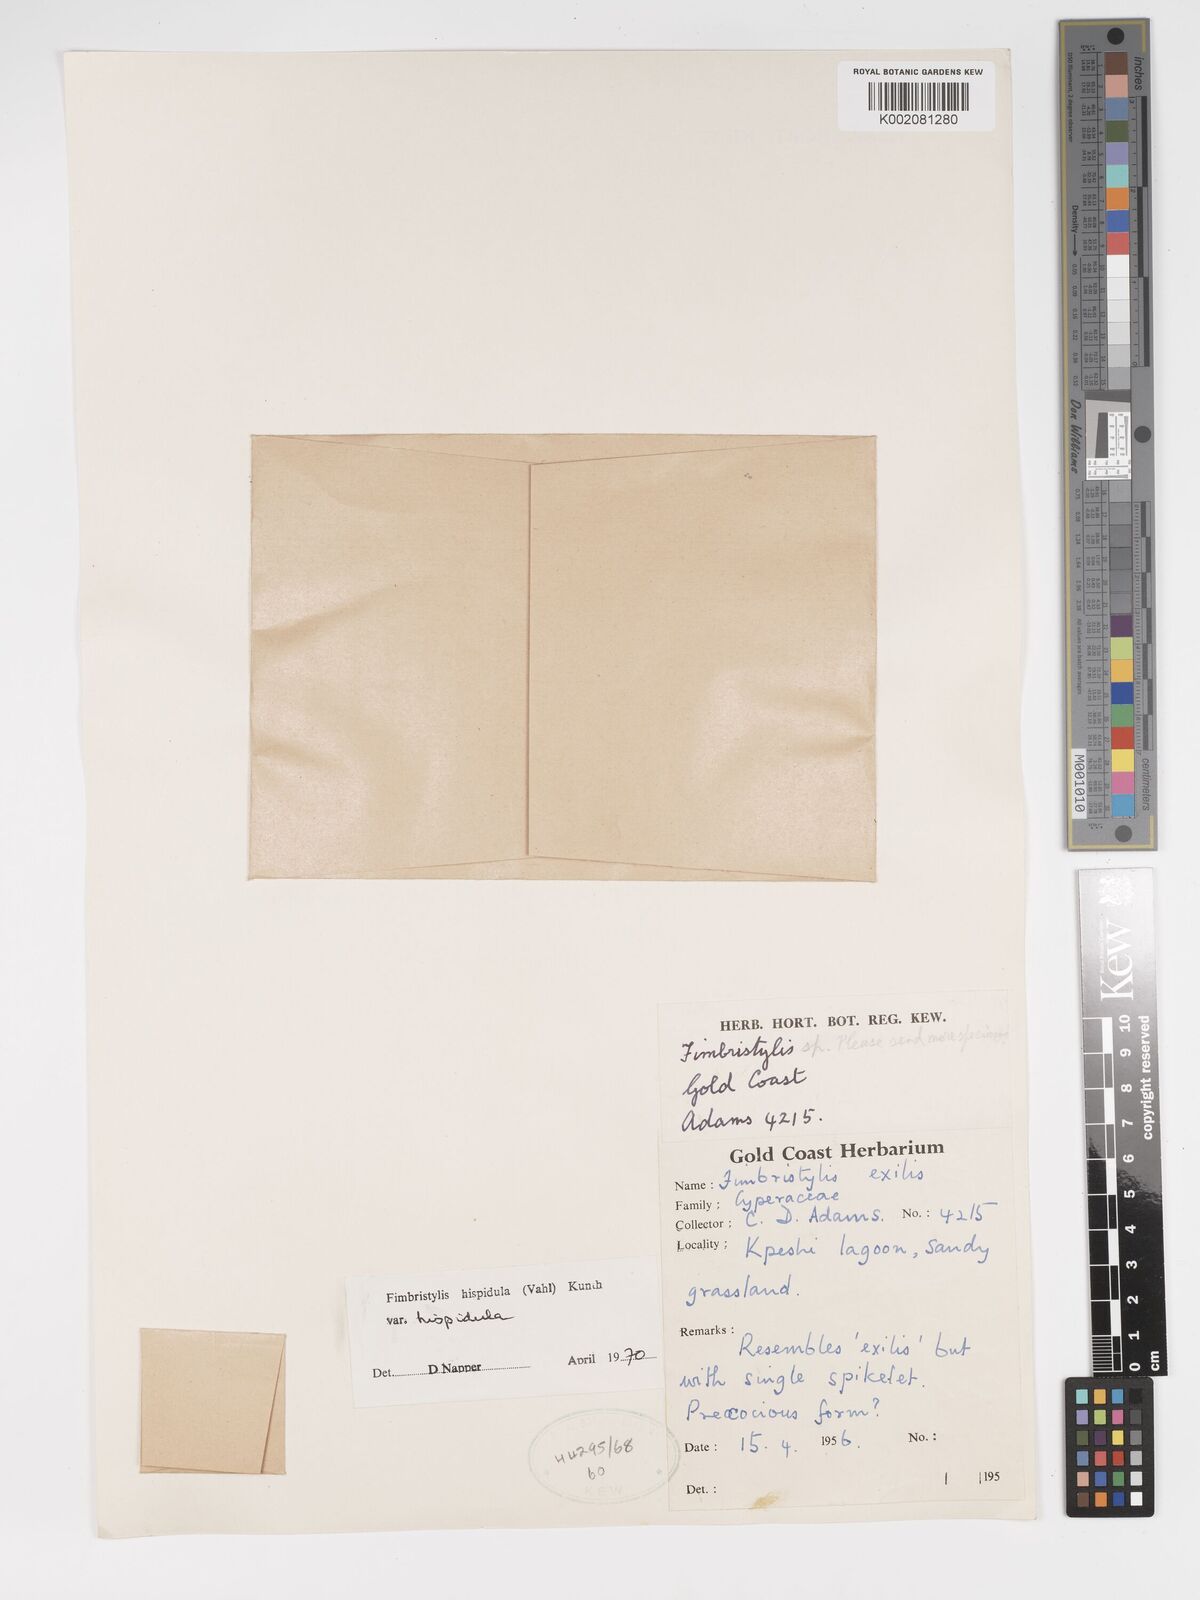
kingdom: Plantae
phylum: Tracheophyta
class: Liliopsida
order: Poales
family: Cyperaceae
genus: Bulbostylis
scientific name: Bulbostylis hispidula
